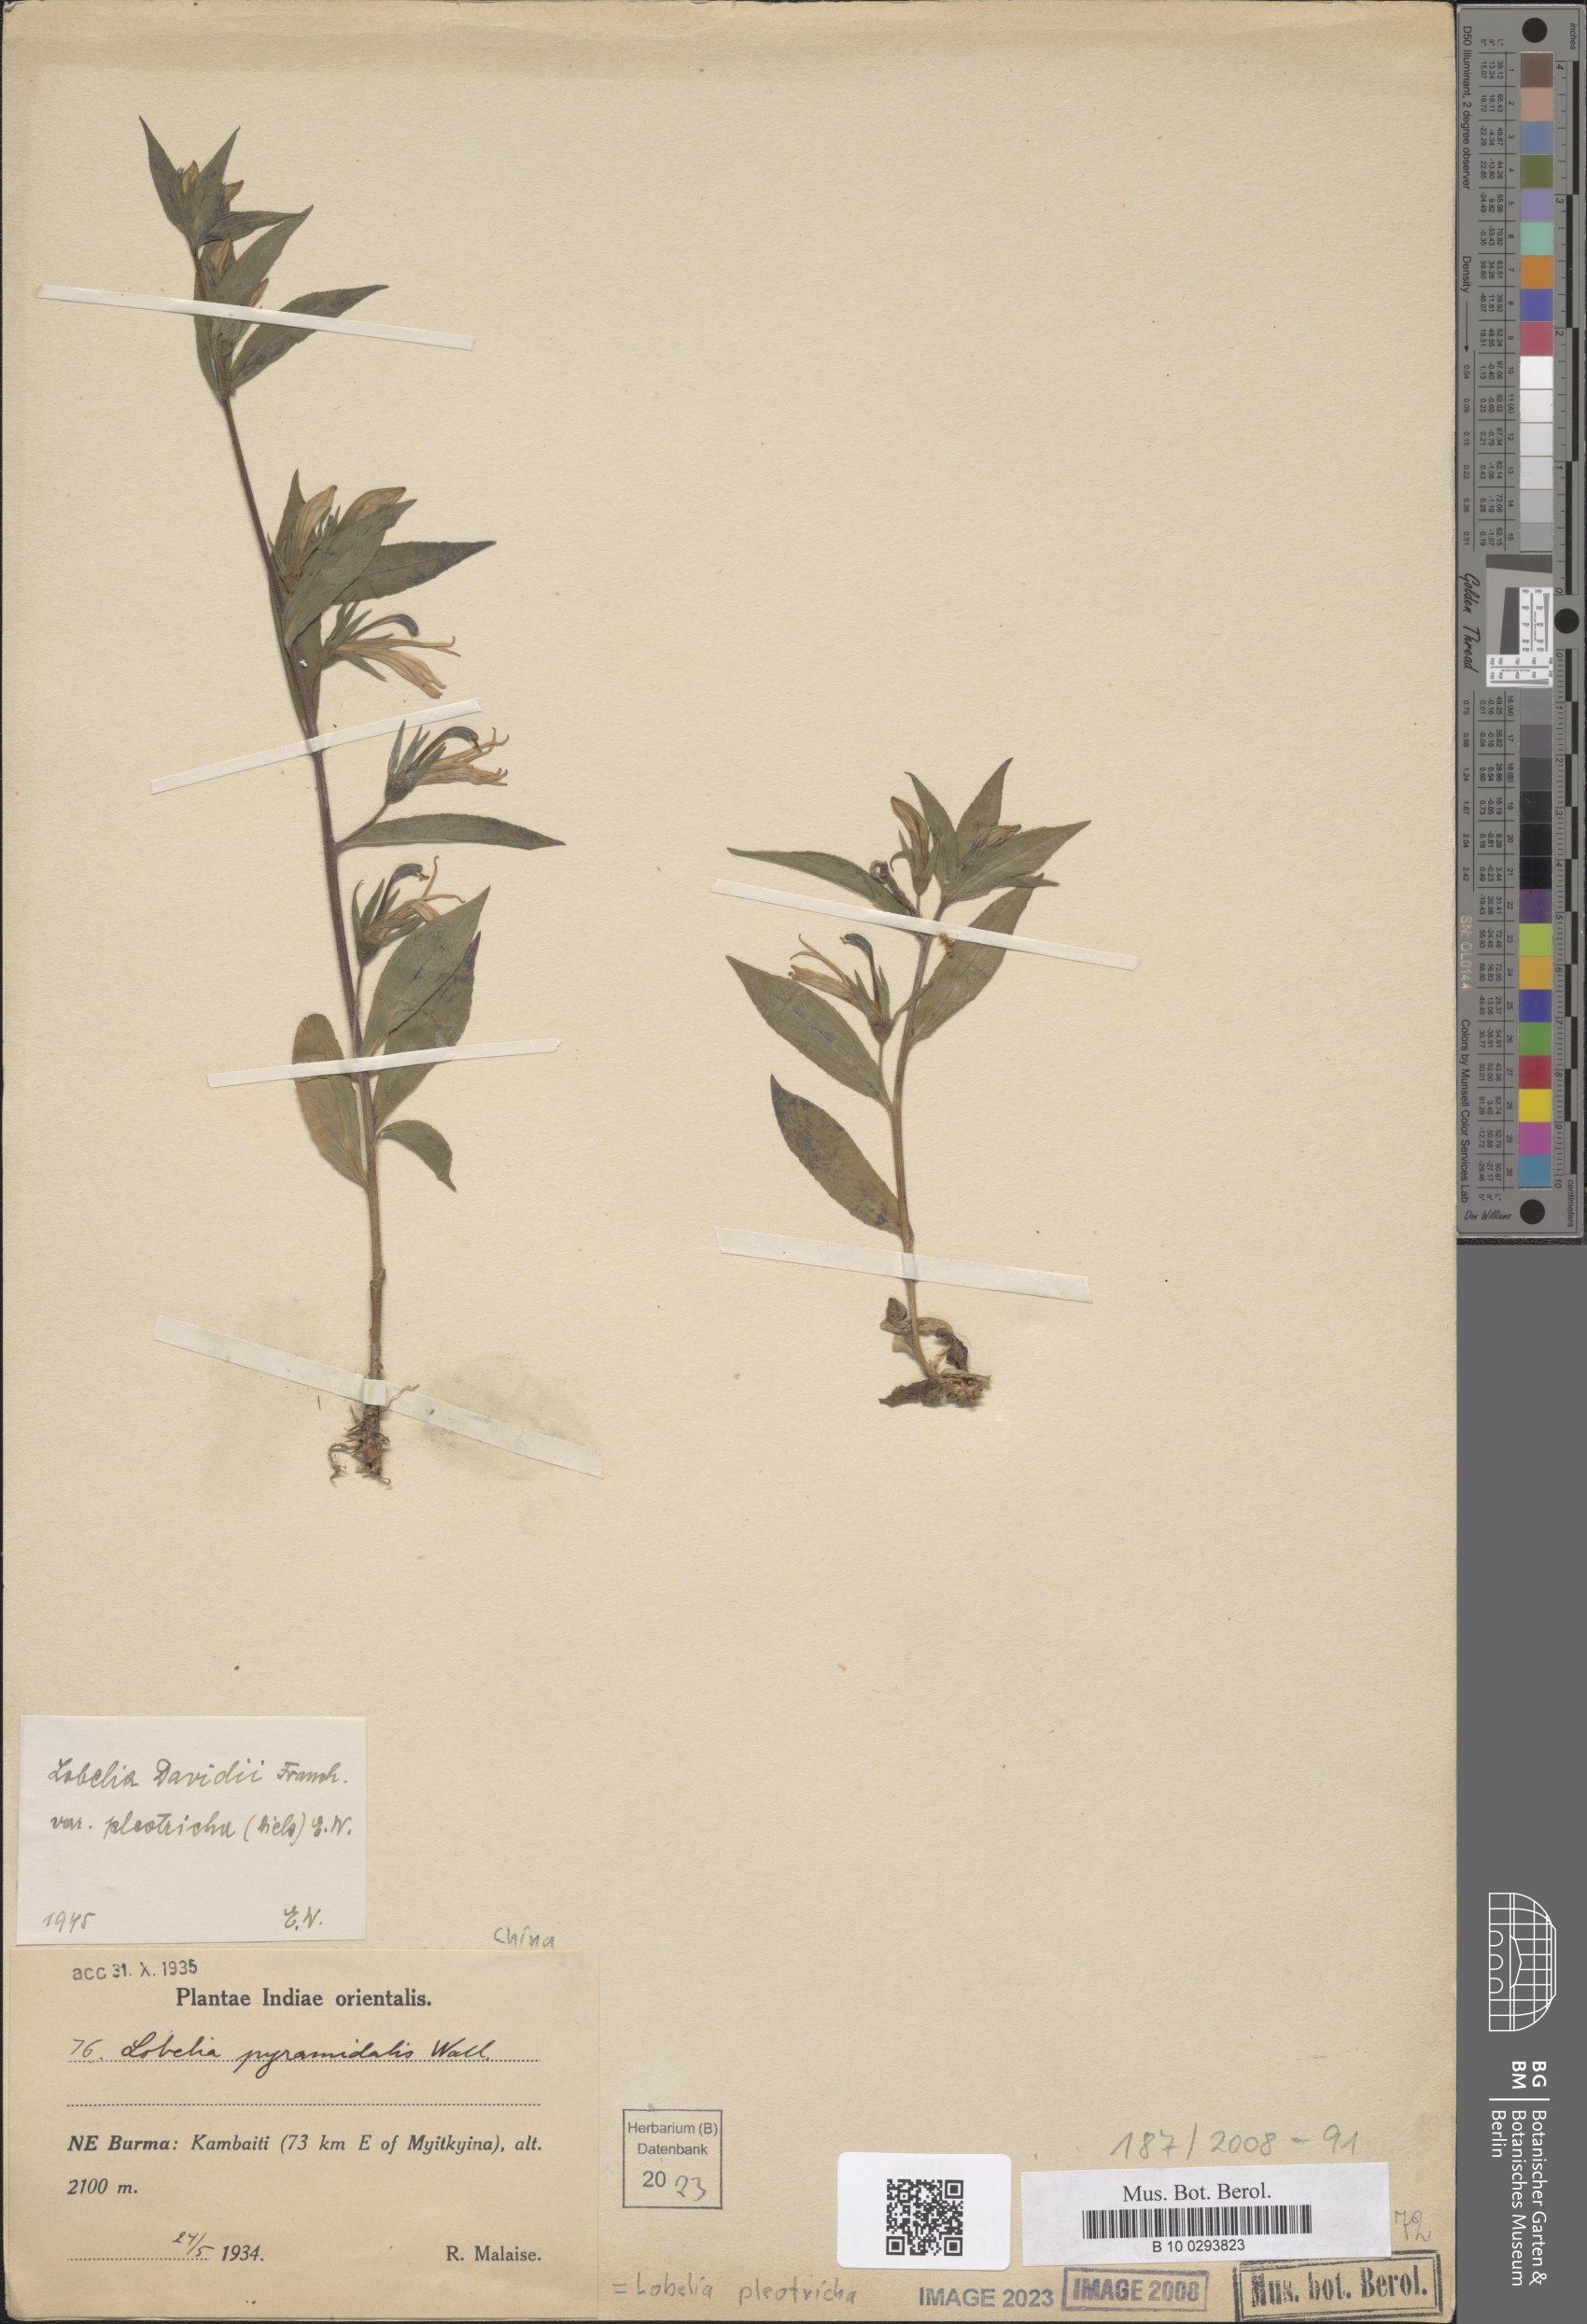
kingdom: Plantae
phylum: Tracheophyta
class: Magnoliopsida
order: Asterales
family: Campanulaceae
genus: Lobelia
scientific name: Lobelia pleotricha
